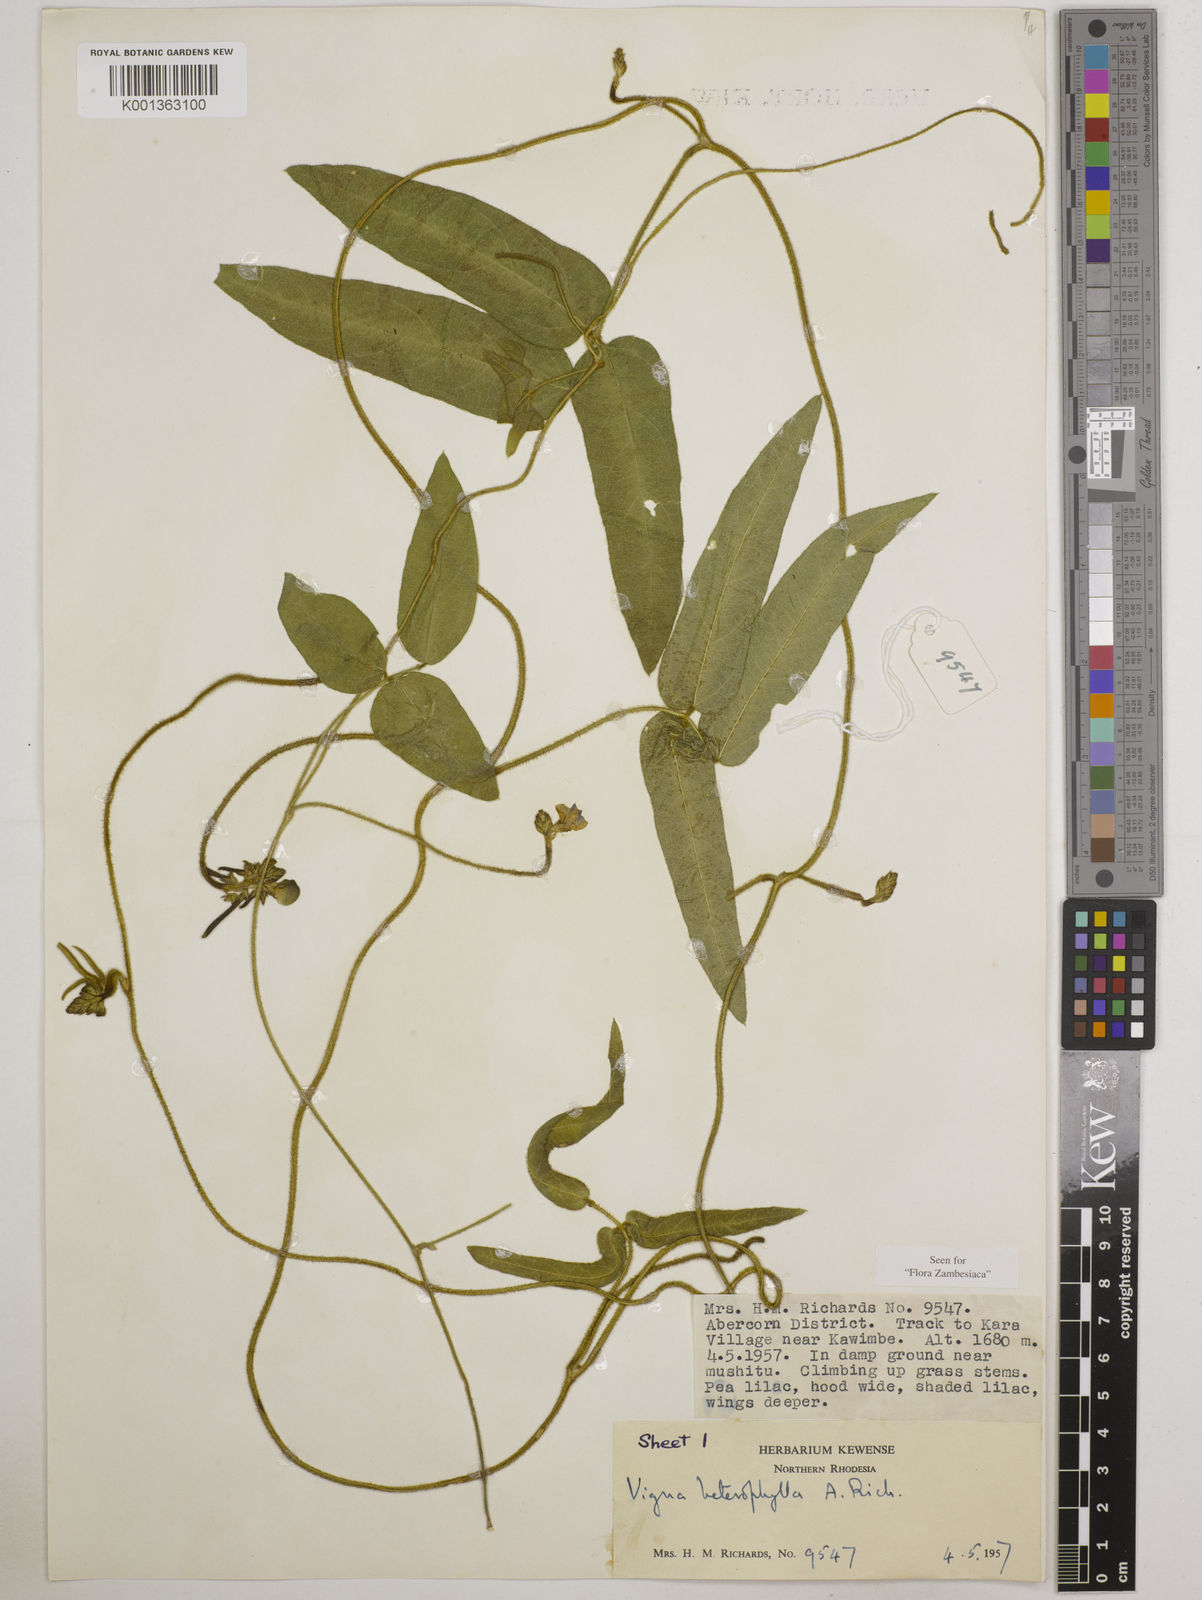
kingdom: Plantae
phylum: Tracheophyta
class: Magnoliopsida
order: Fabales
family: Fabaceae
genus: Vigna
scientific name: Vigna heterophylla
